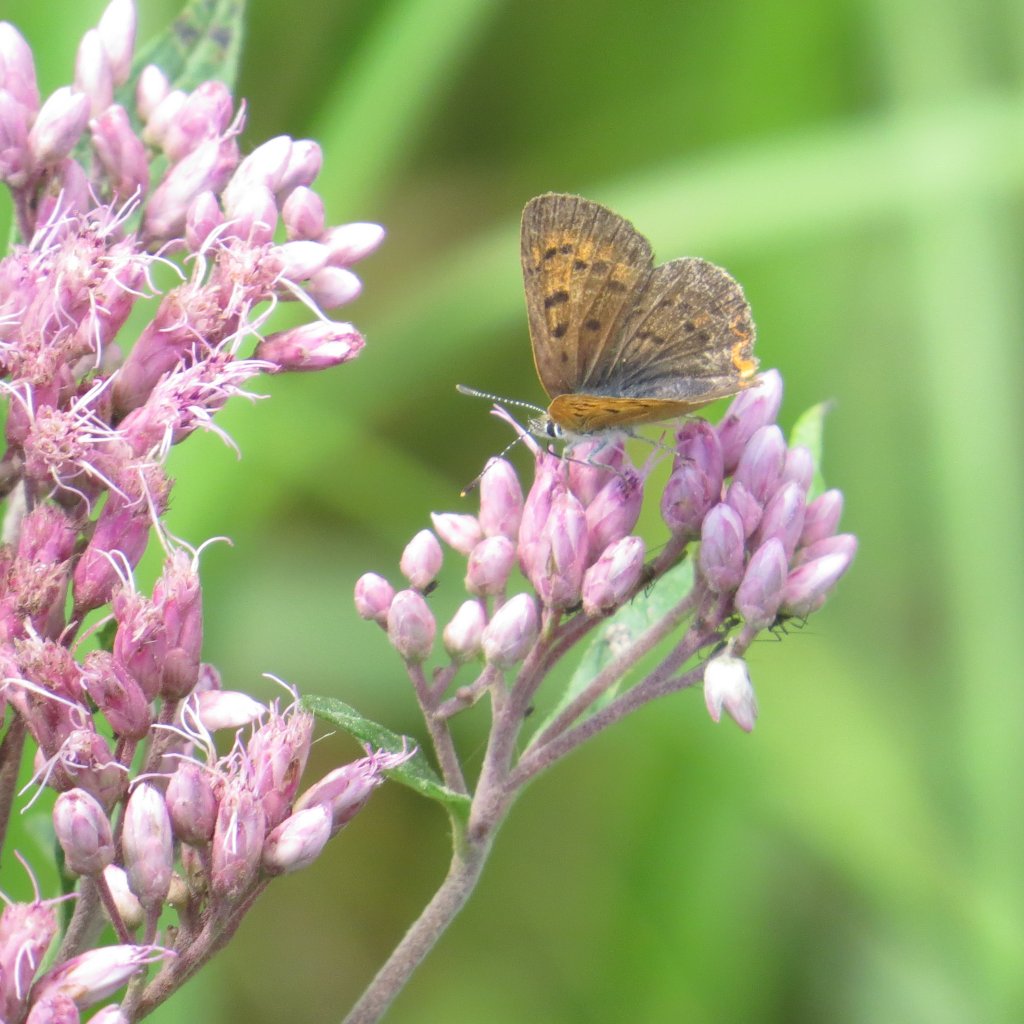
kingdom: Animalia
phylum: Arthropoda
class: Insecta
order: Lepidoptera
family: Lycaenidae
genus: Epidemia
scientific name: Epidemia dorcas
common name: Dorcas Copper
